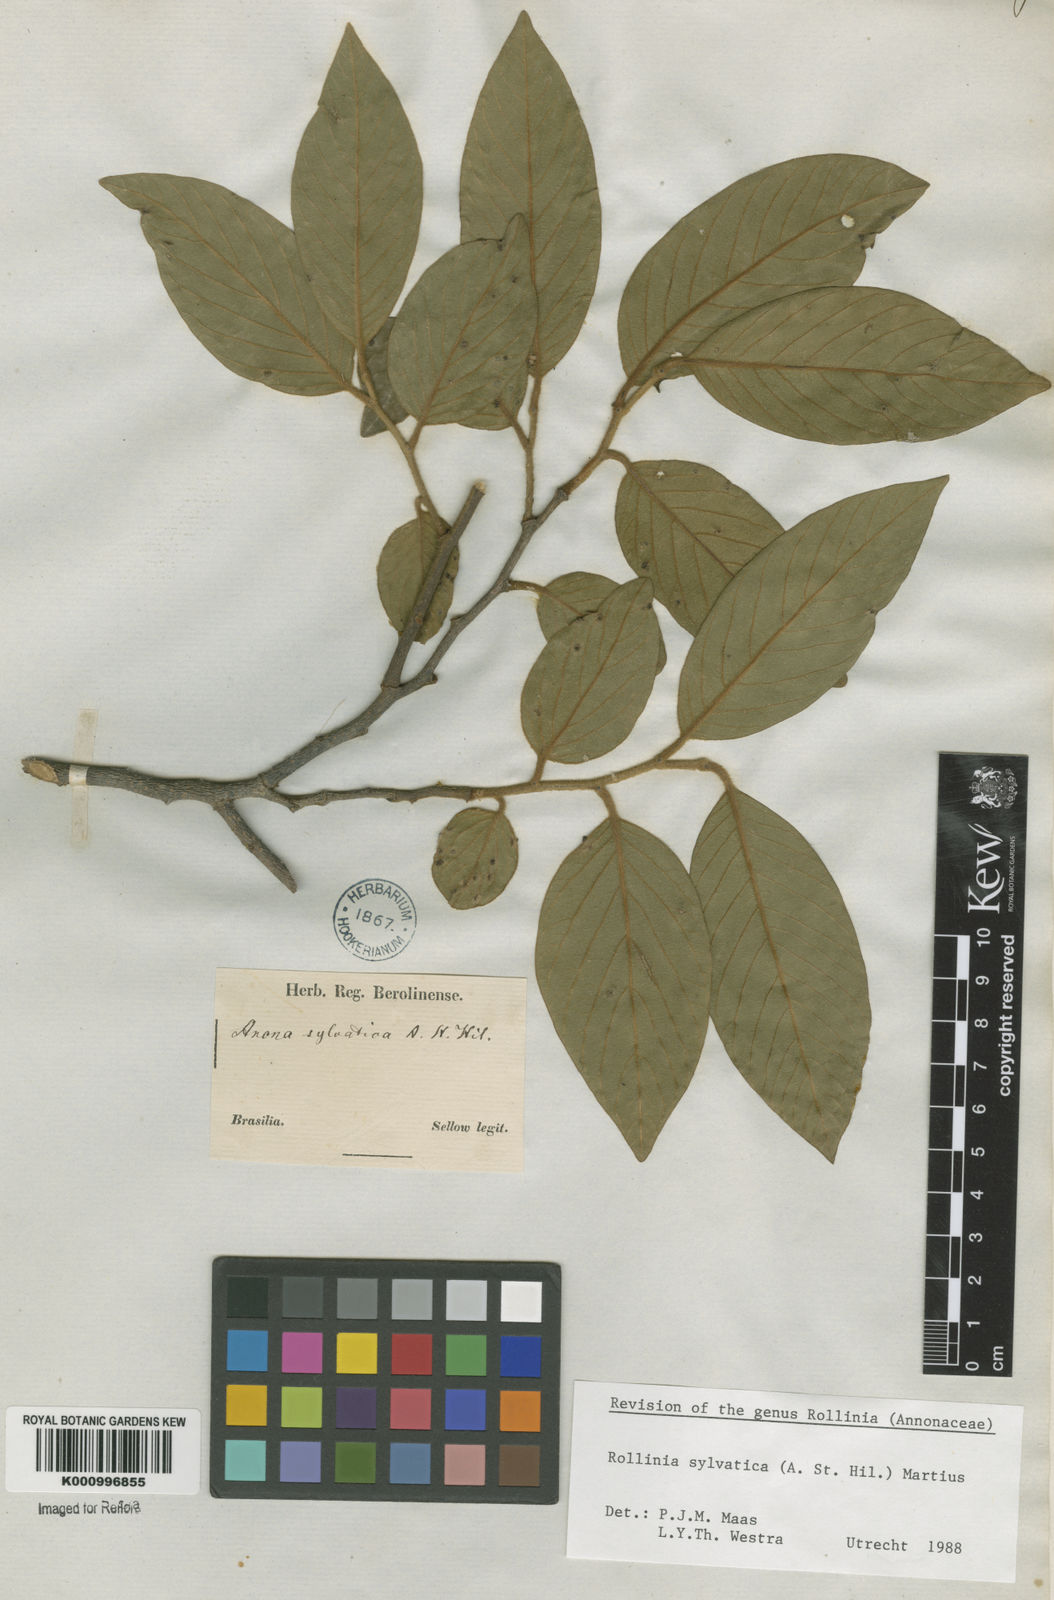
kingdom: Plantae
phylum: Tracheophyta
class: Magnoliopsida
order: Magnoliales
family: Annonaceae
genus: Annona
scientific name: Annona sylvatica
